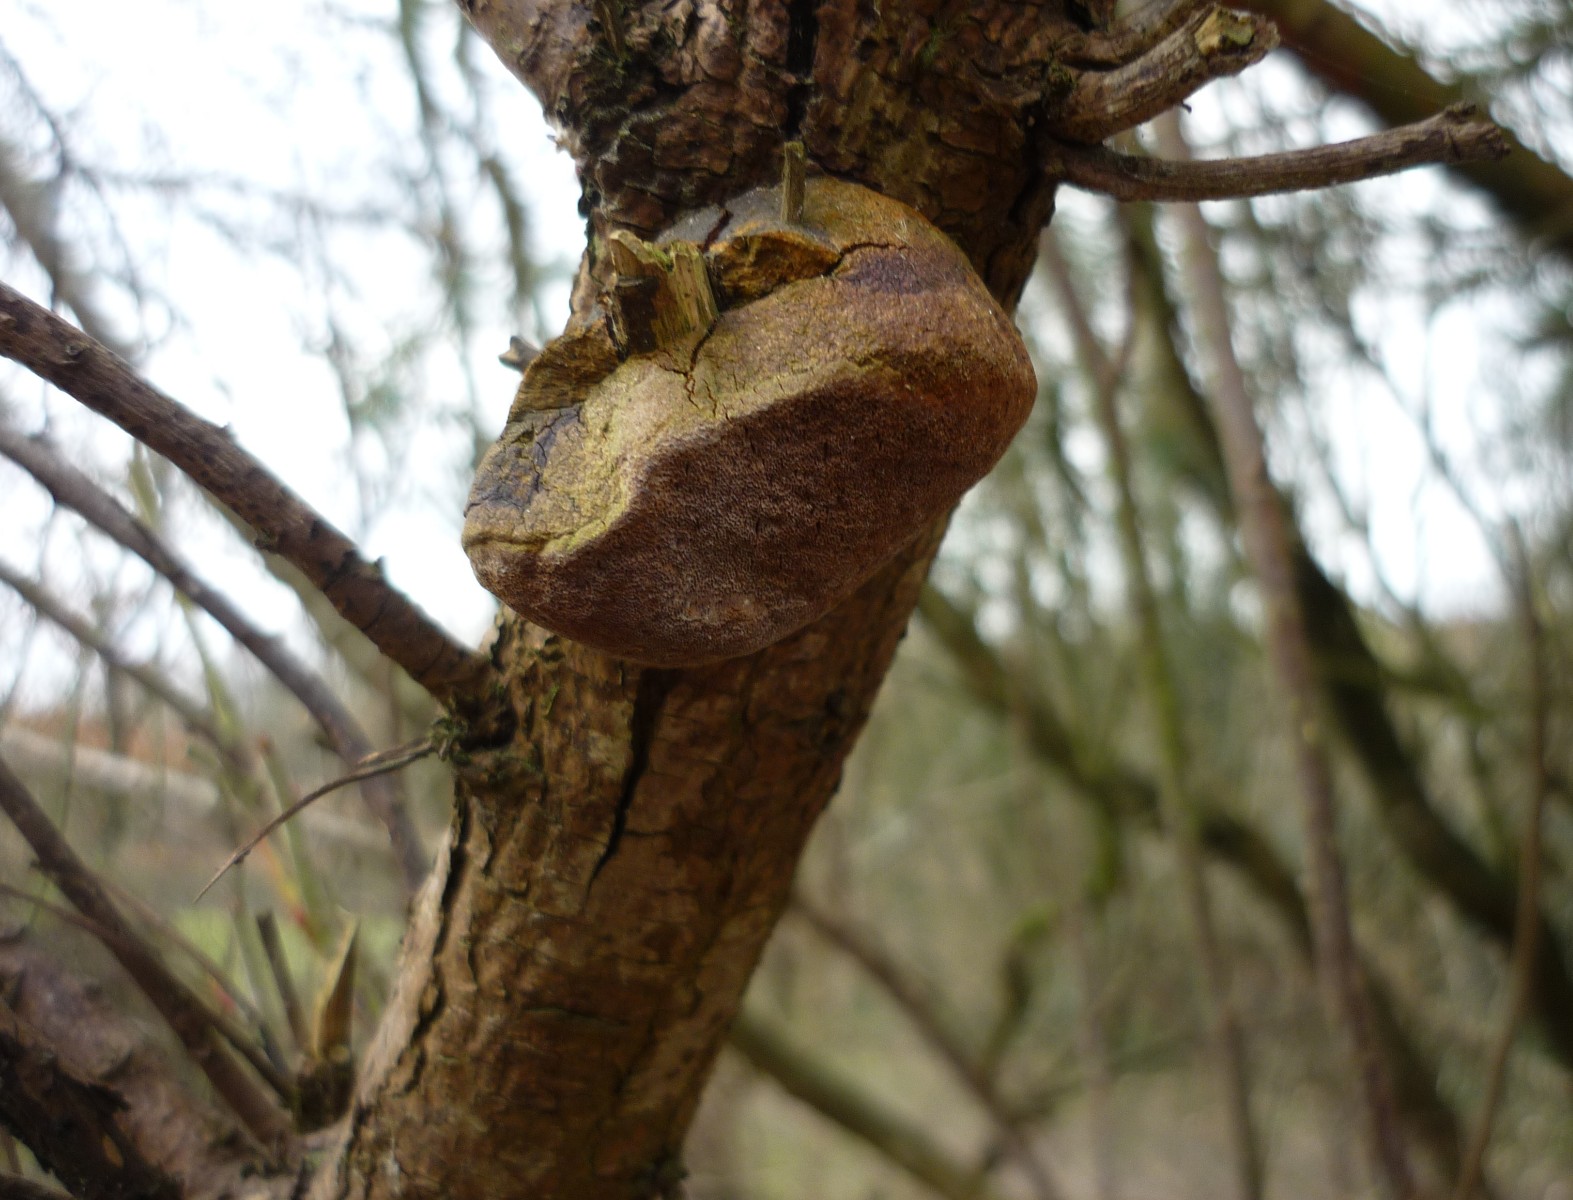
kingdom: Fungi
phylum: Basidiomycota
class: Agaricomycetes
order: Hymenochaetales
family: Hymenochaetaceae
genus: Fomitiporia
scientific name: Fomitiporia hippophaeicola
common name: havtorn-ildporesvamp
